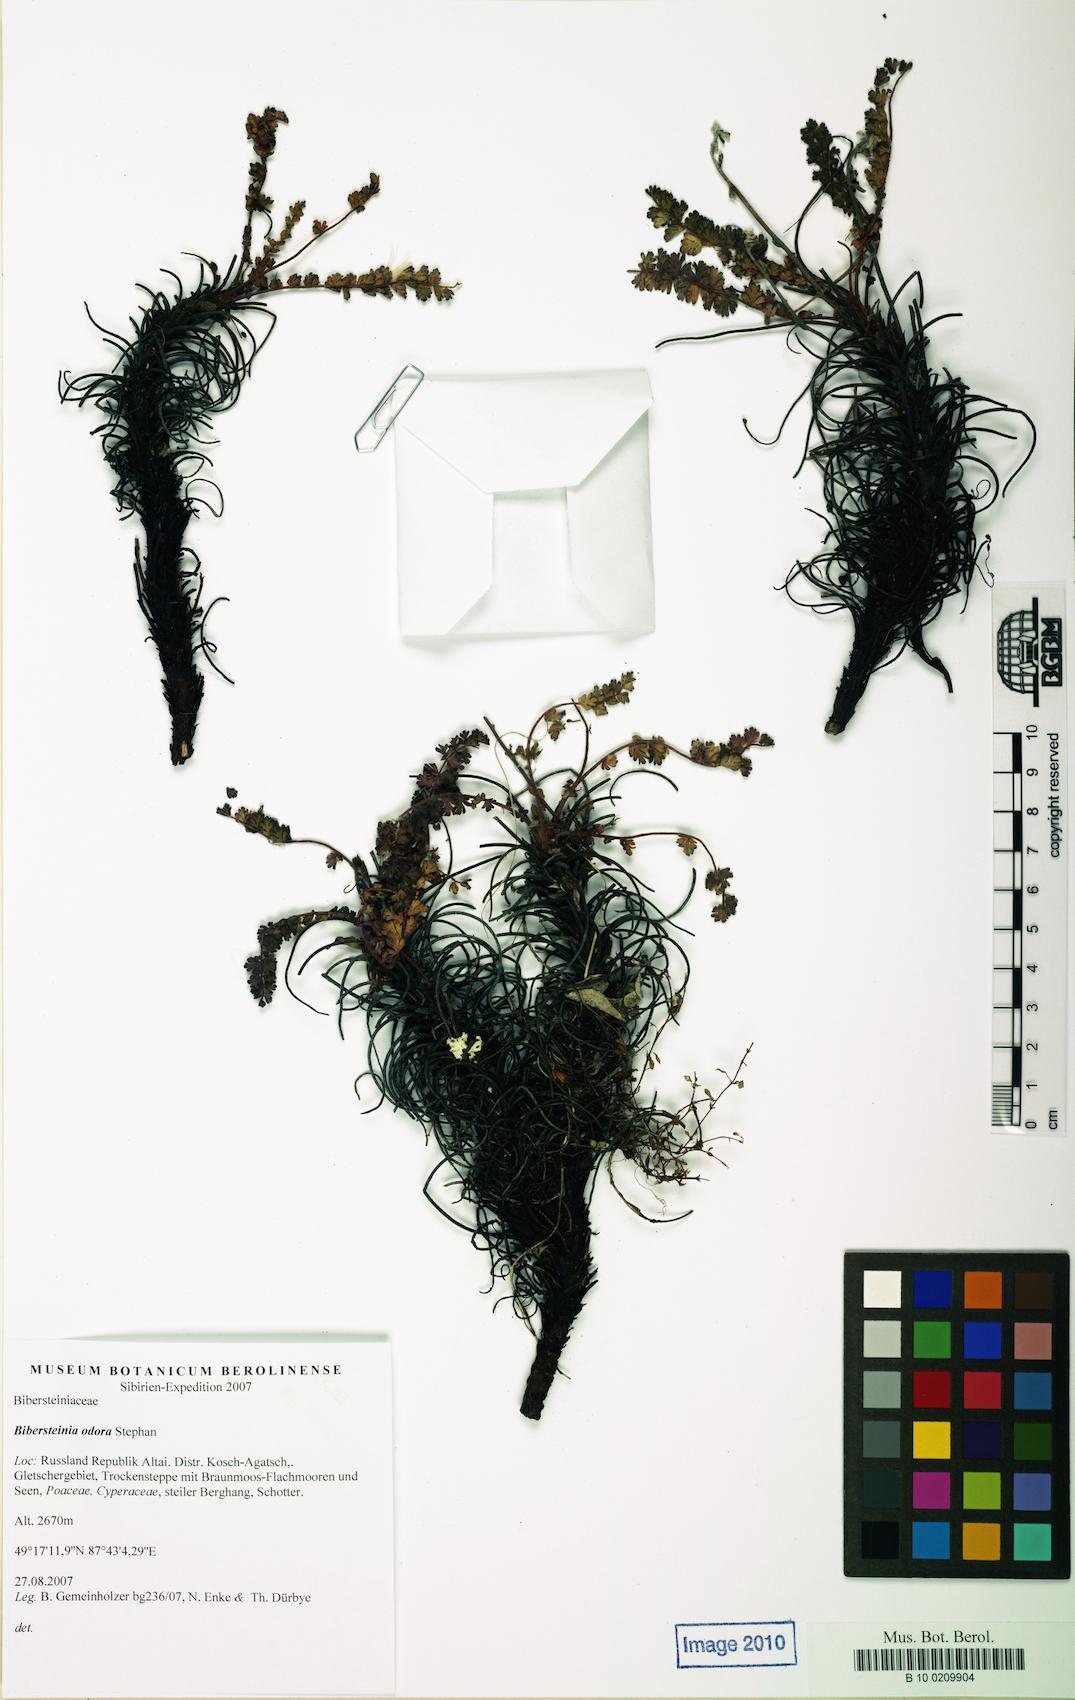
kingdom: Plantae
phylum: Tracheophyta
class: Magnoliopsida
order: Sapindales
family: Biebersteiniaceae
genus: Biebersteinia
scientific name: Biebersteinia odora
